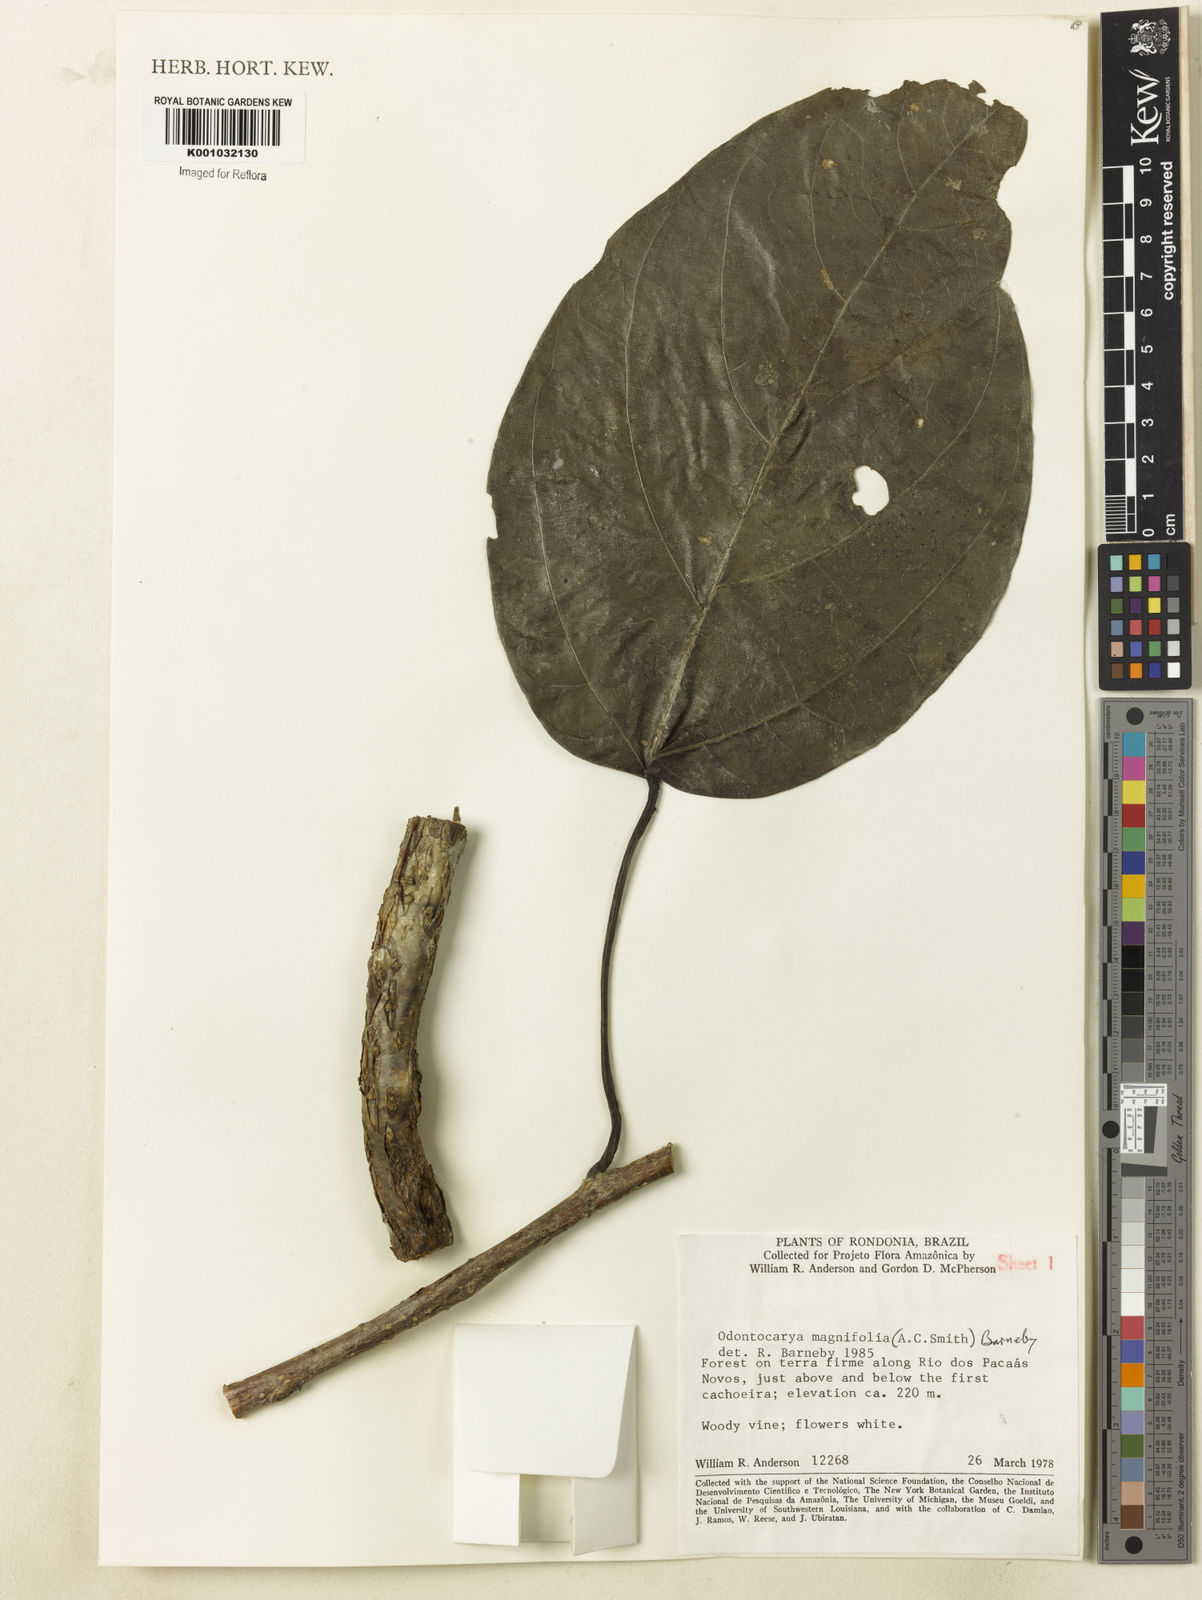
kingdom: Plantae
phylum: Tracheophyta
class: Magnoliopsida
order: Ranunculales
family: Menispermaceae
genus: Odontocarya
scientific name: Odontocarya magnifolia
